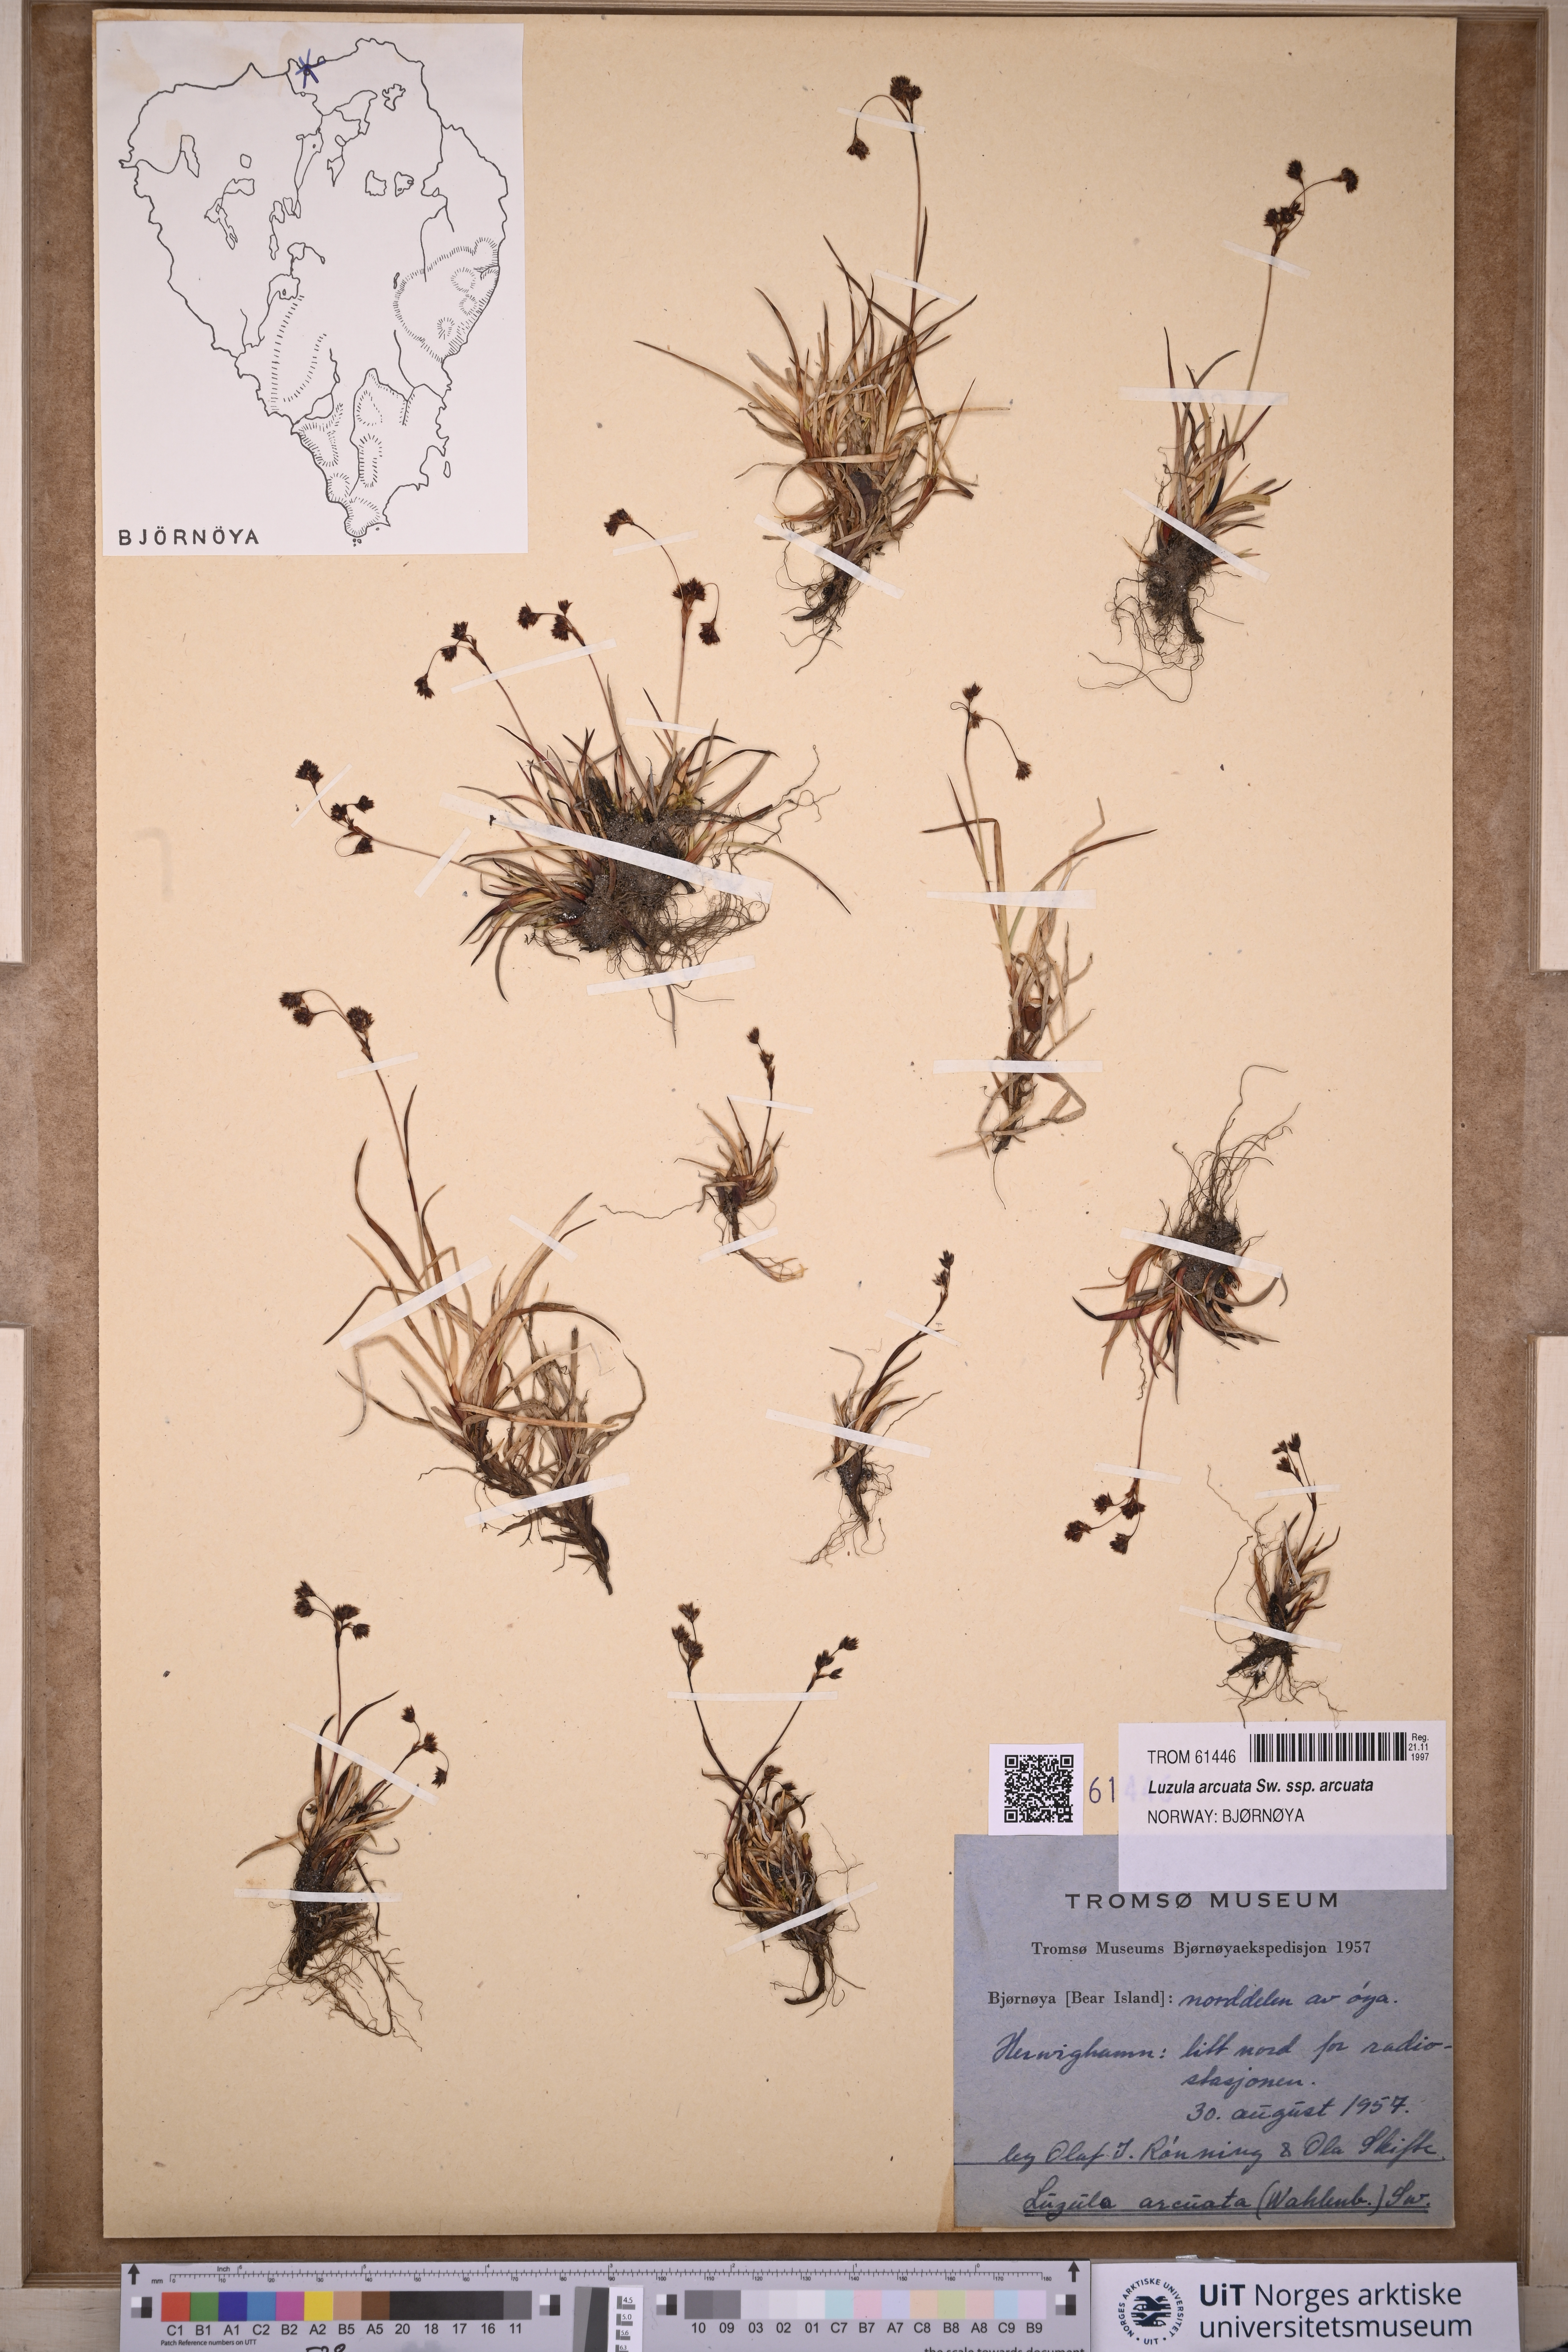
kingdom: Plantae
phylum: Tracheophyta
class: Liliopsida
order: Poales
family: Juncaceae
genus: Luzula
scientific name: Luzula arcuata
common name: Curved wood-rush
